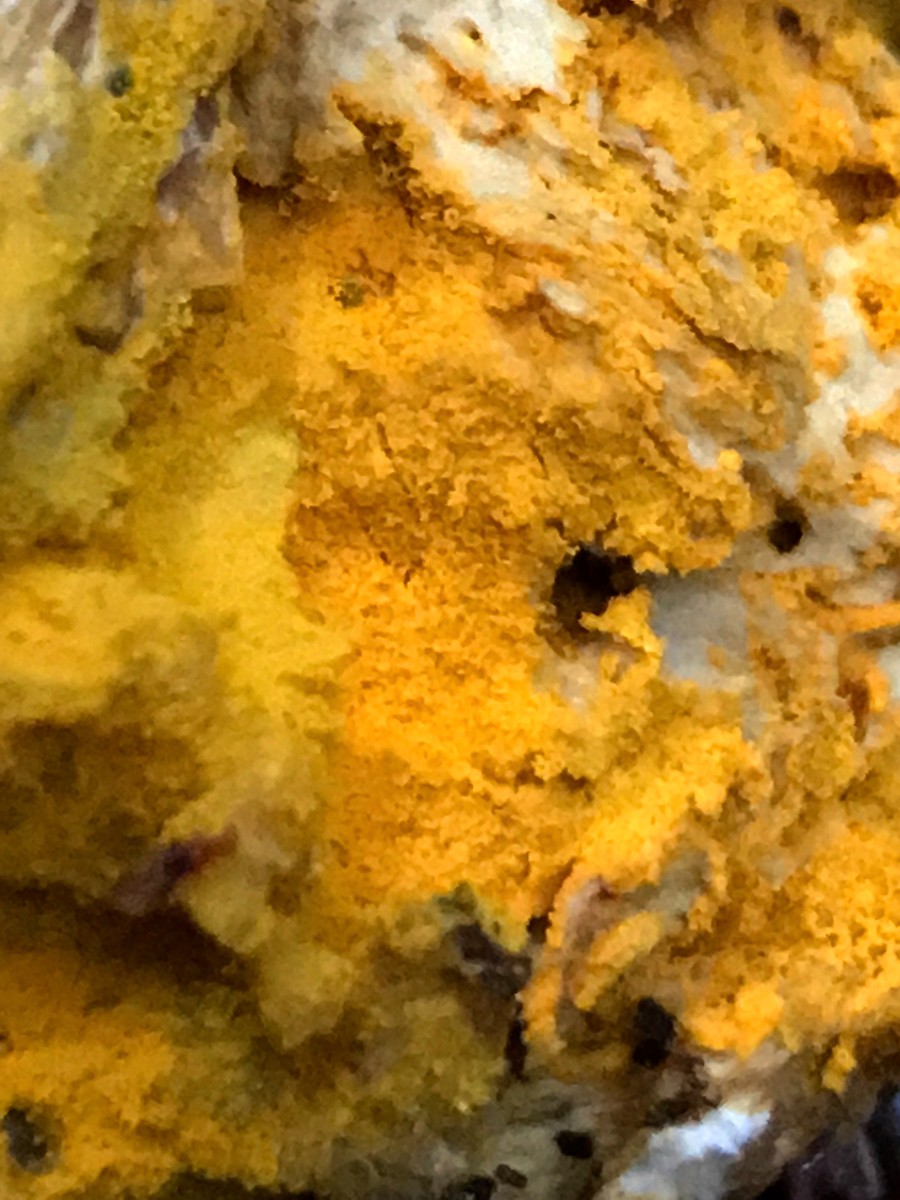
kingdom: Fungi
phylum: Ascomycota
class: Sordariomycetes
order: Hypocreales
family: Hypocreaceae
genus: Hypomyces
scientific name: Hypomyces chrysospermus
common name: gulskimmel-snylteskorpe
